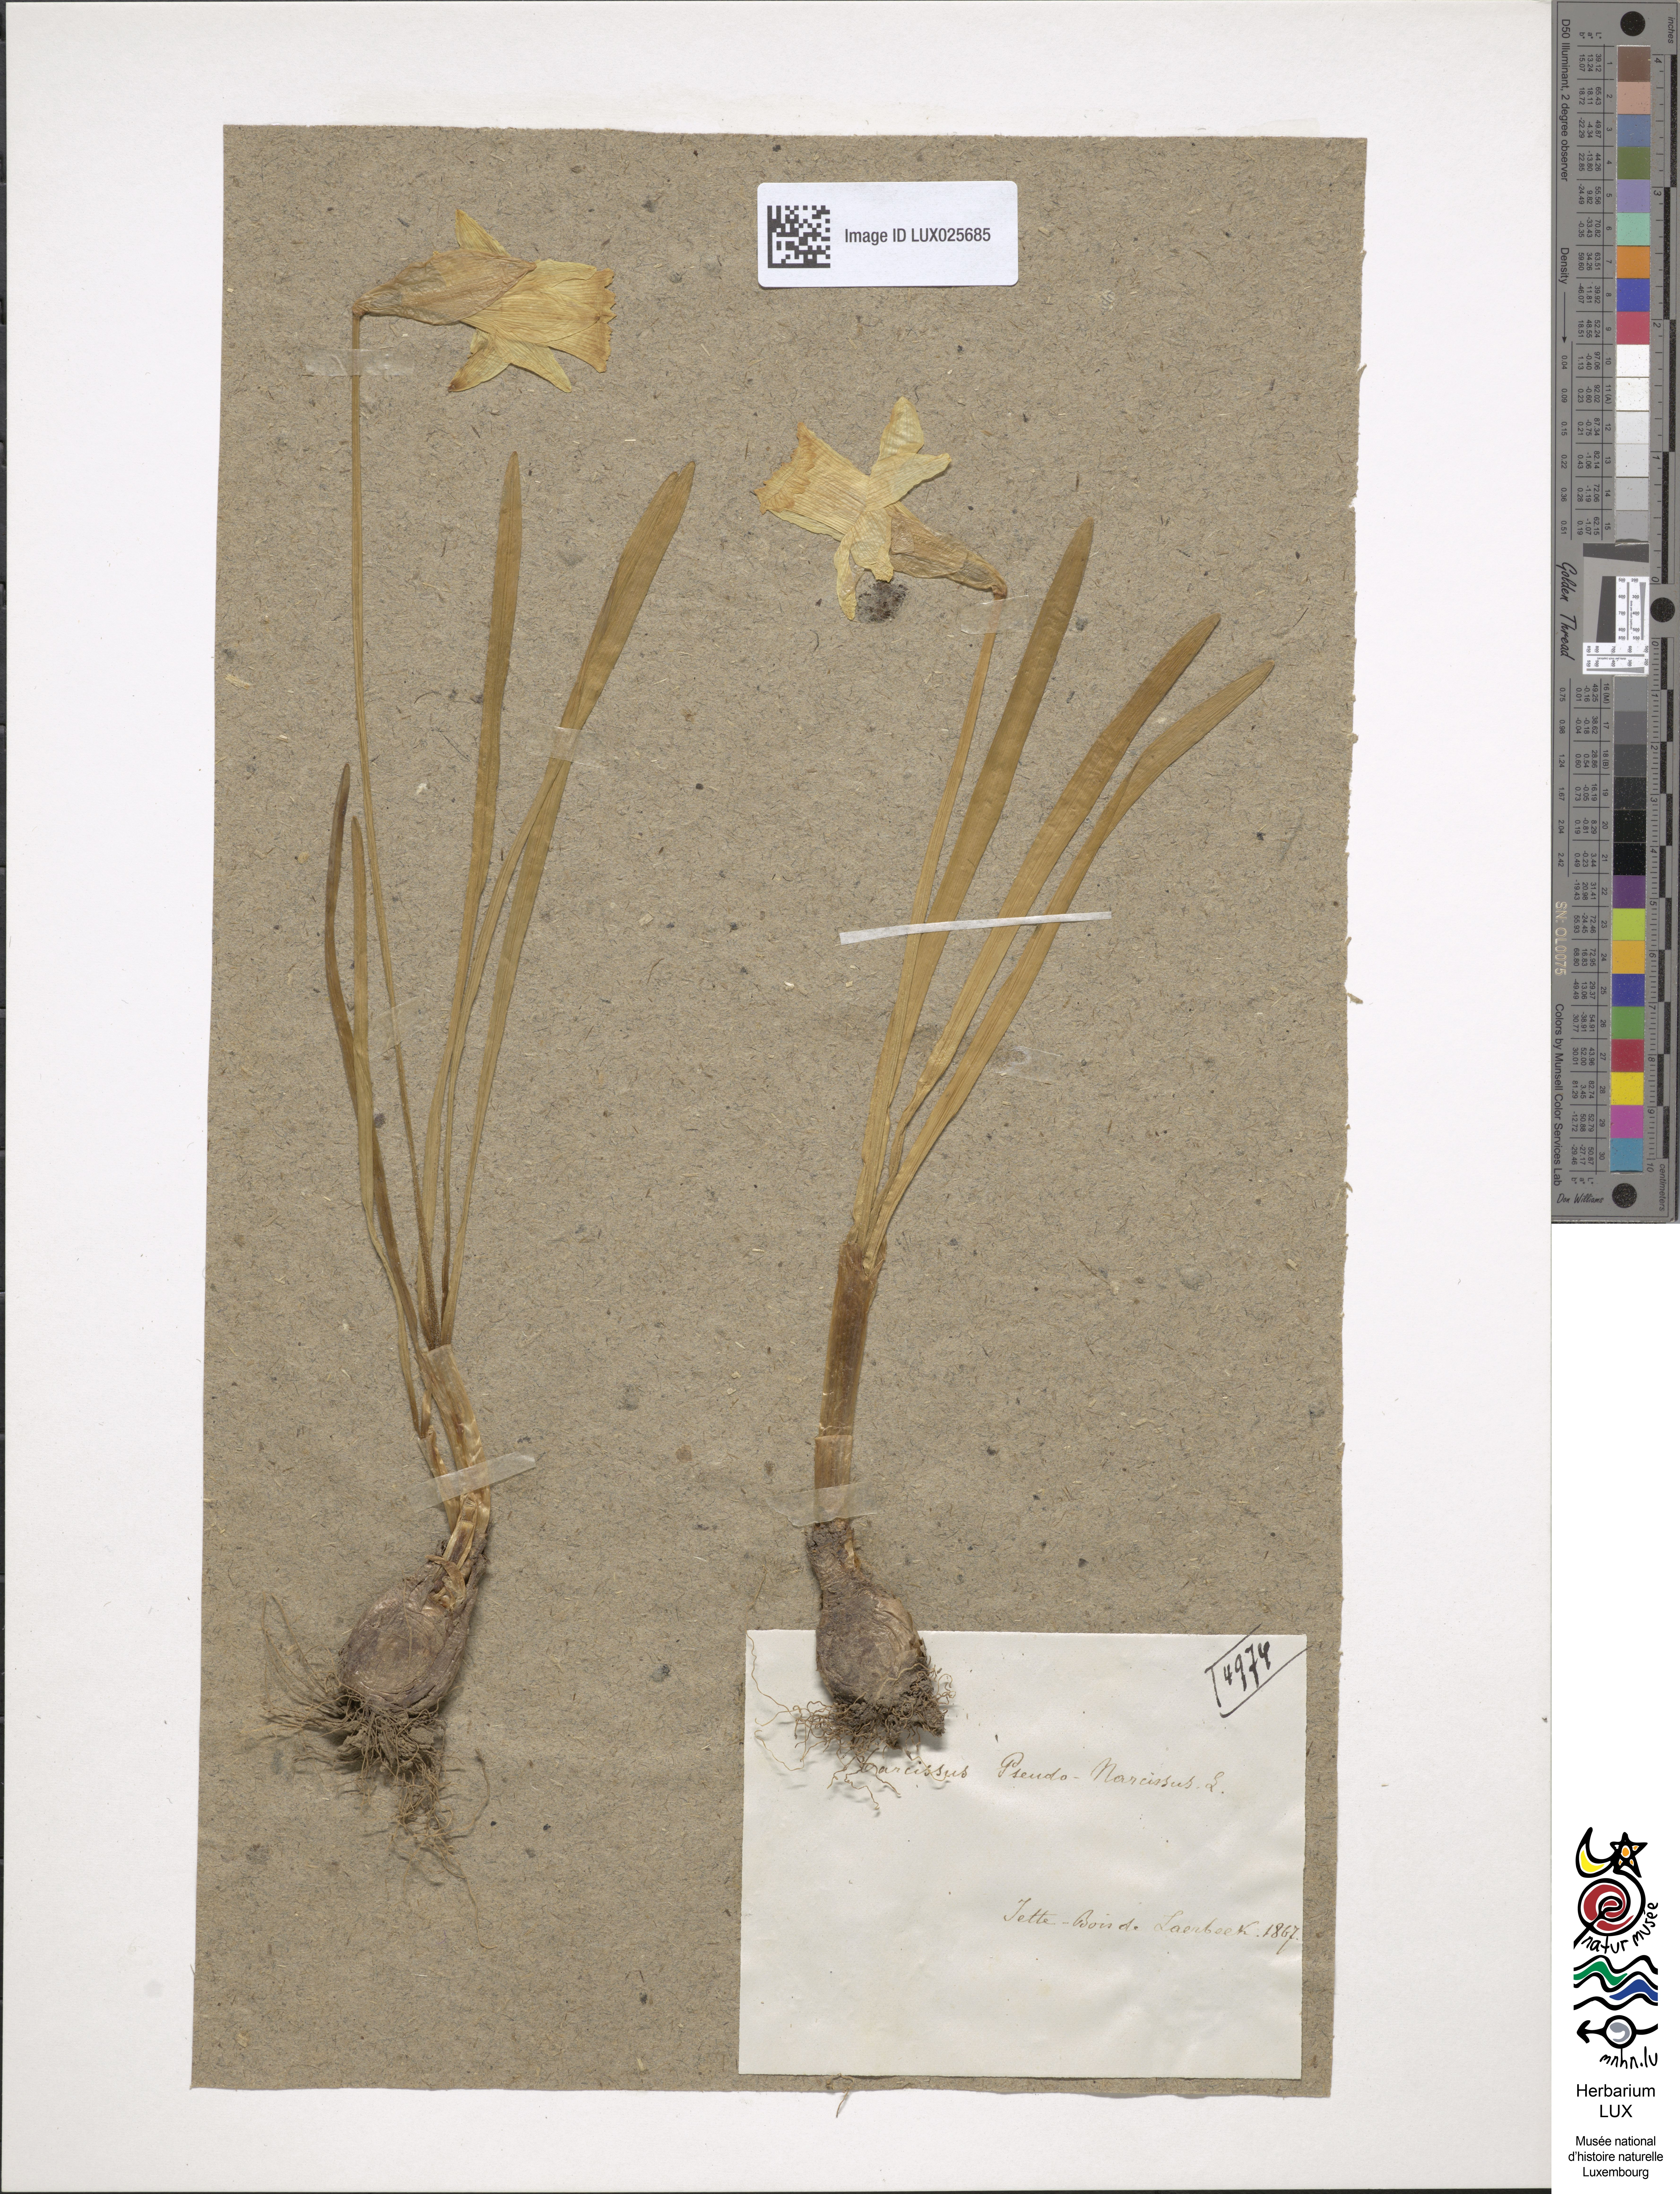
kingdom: Plantae
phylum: Tracheophyta
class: Liliopsida
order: Asparagales
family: Amaryllidaceae
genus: Narcissus
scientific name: Narcissus pseudonarcissus
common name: Daffodil
